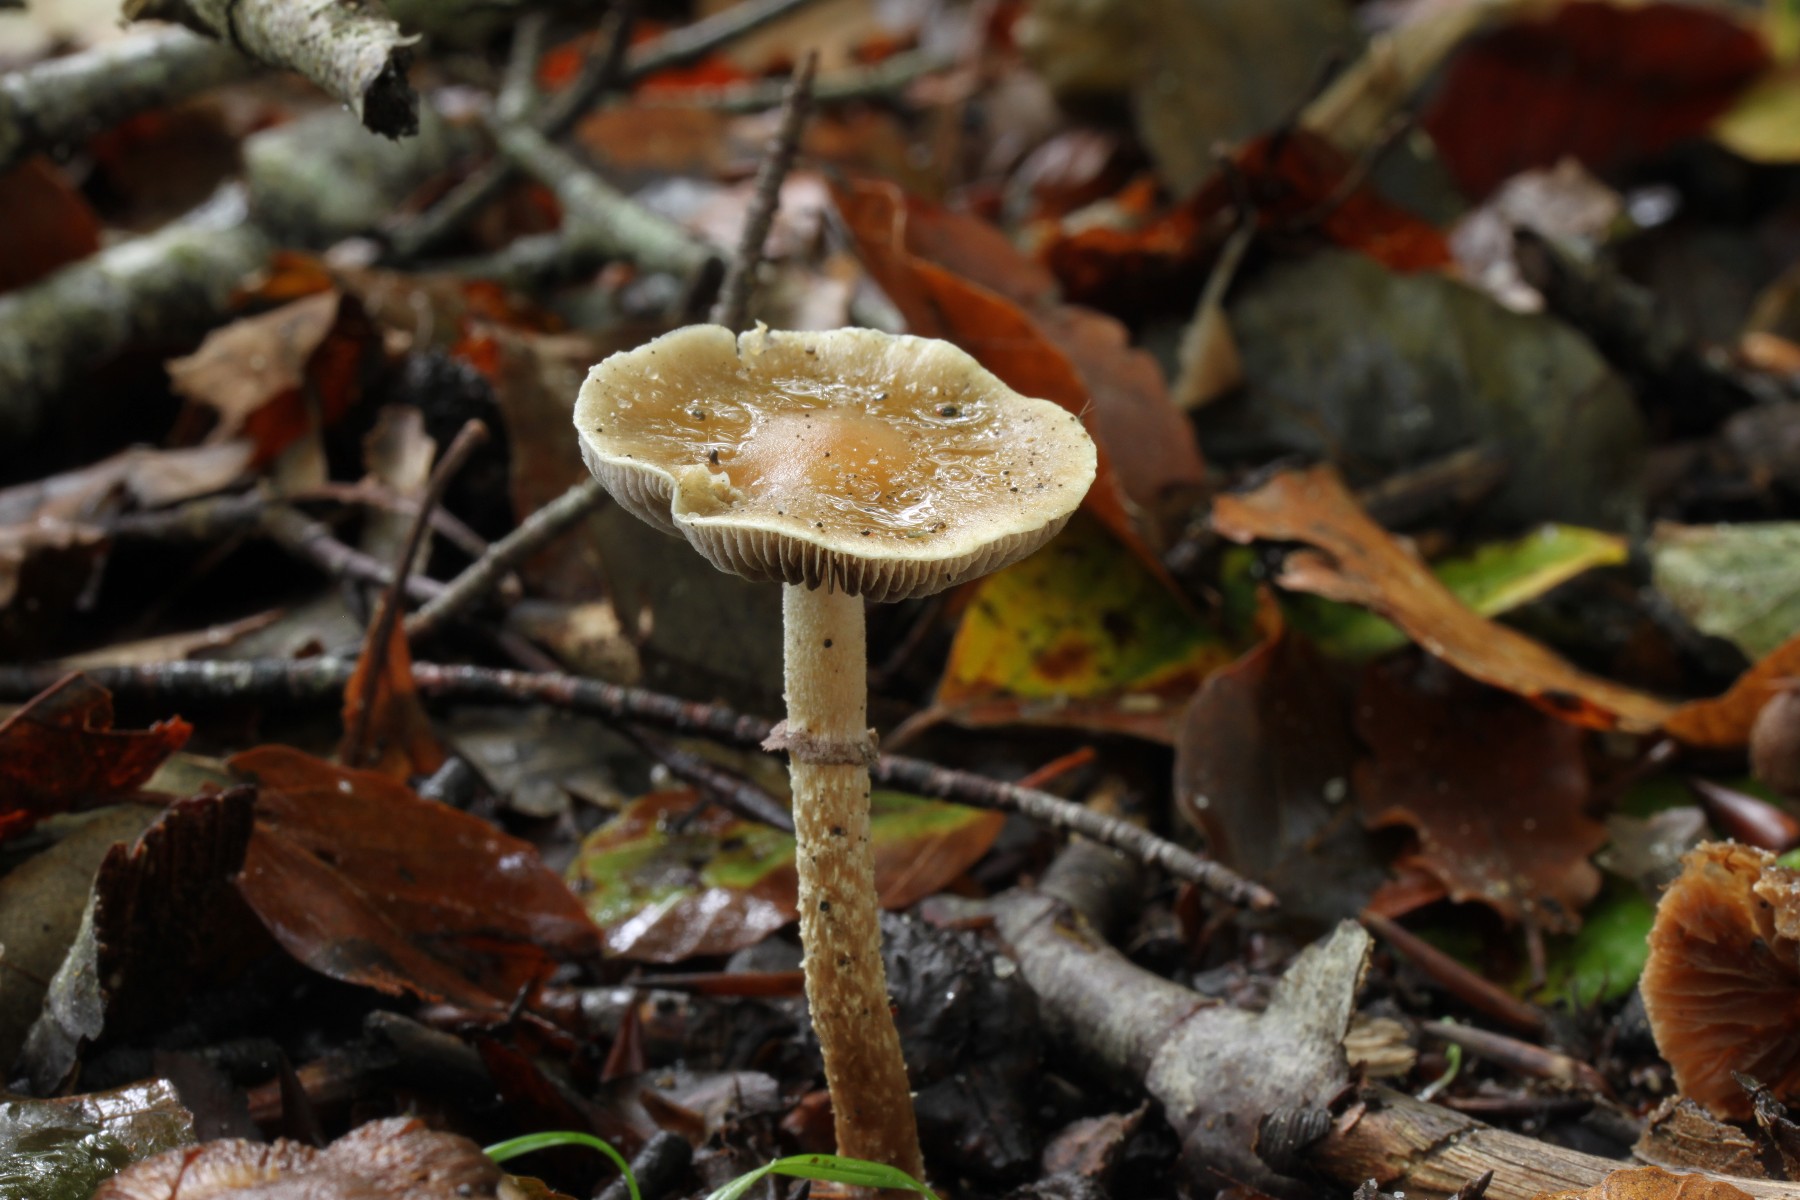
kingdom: Fungi
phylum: Basidiomycota
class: Agaricomycetes
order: Agaricales
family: Strophariaceae
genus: Leratiomyces
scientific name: Leratiomyces squamosus
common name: skællet bredblad
